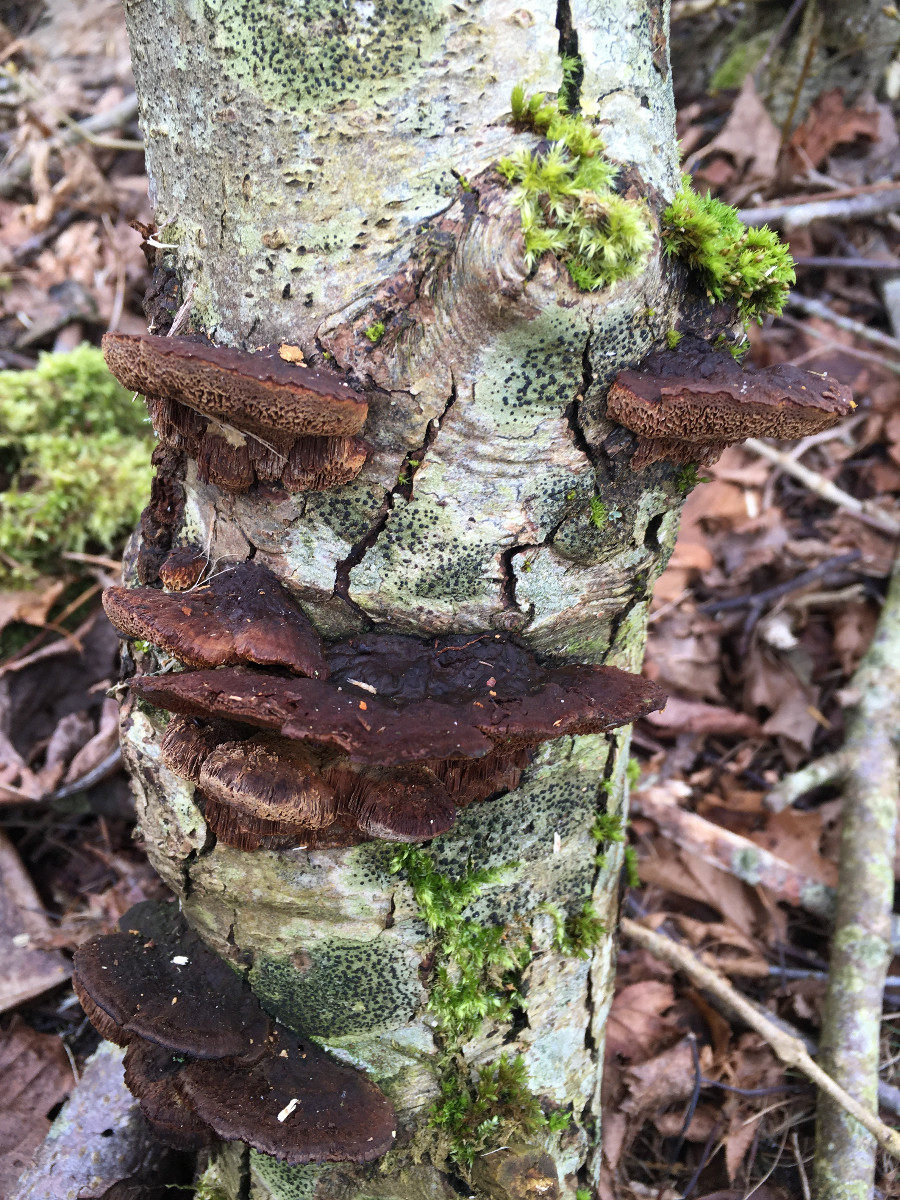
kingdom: Fungi
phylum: Basidiomycota
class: Agaricomycetes
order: Polyporales
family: Polyporaceae
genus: Daedaleopsis
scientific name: Daedaleopsis confragosa
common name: rødmende læderporesvamp
